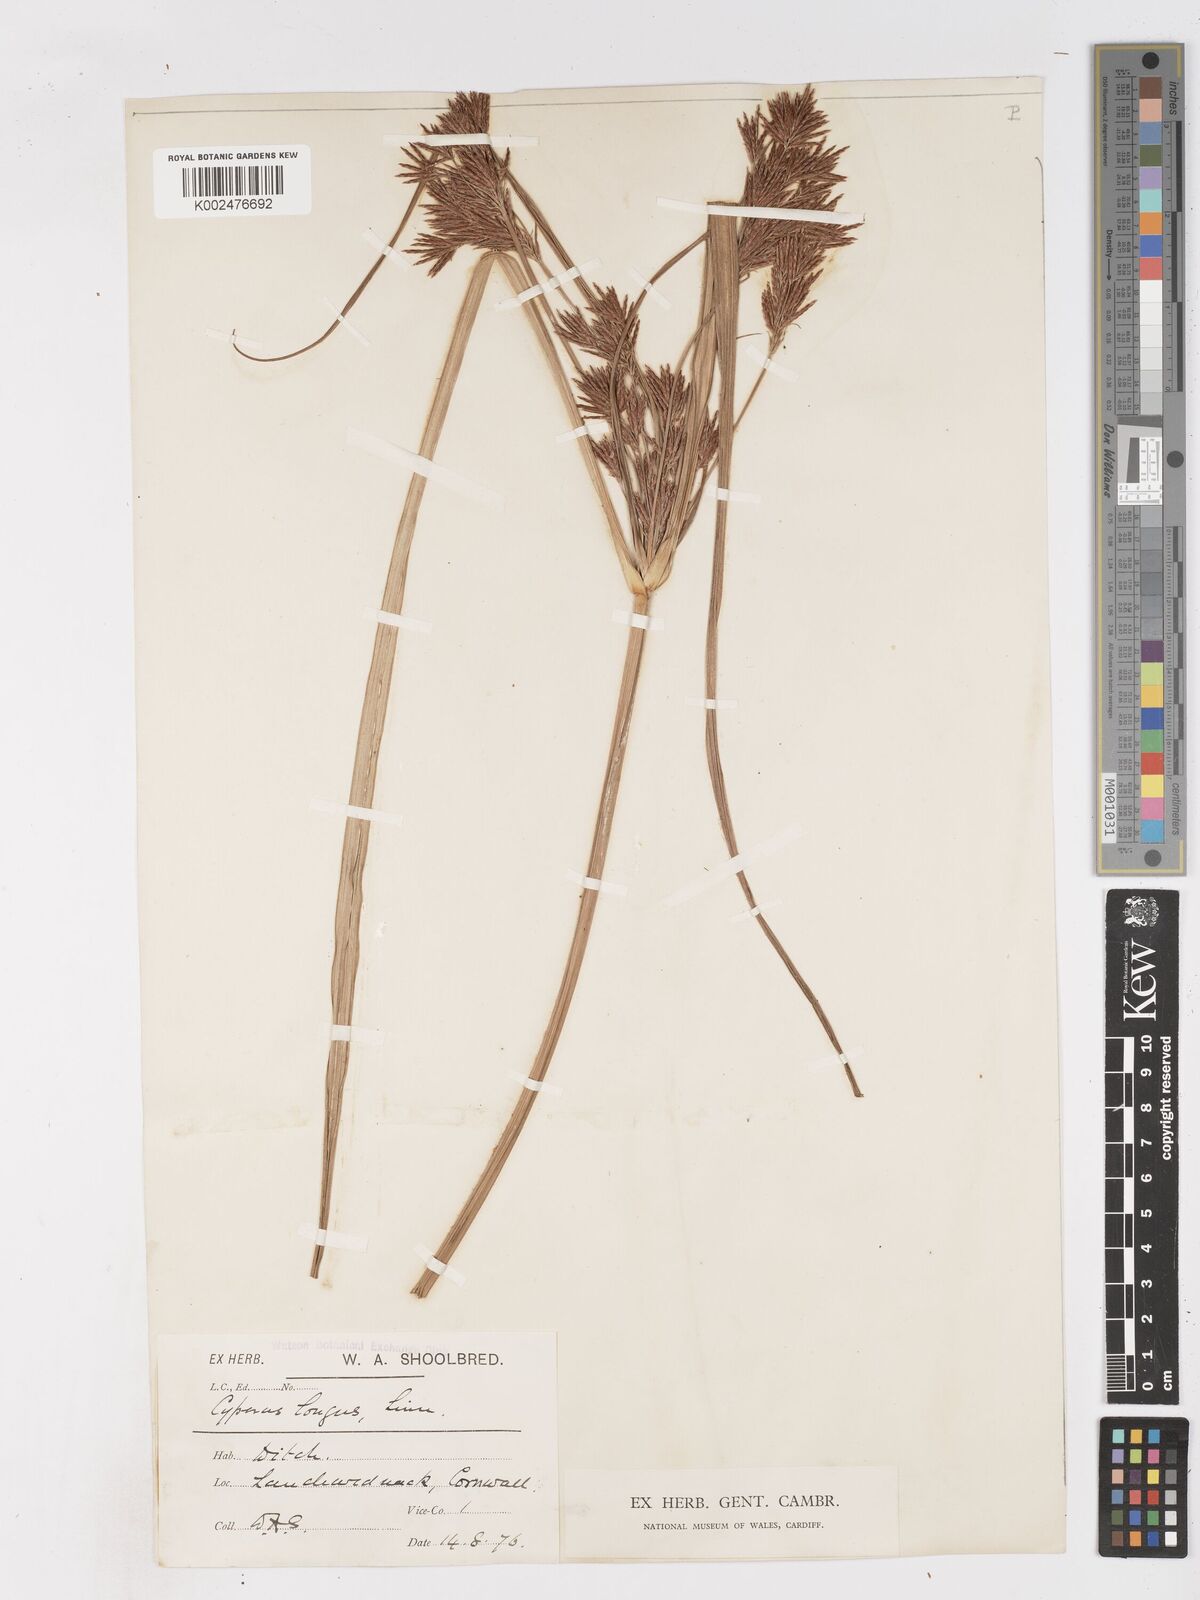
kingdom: Plantae
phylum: Tracheophyta
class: Liliopsida
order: Poales
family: Cyperaceae
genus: Cyperus
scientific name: Cyperus longus
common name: Galingale
